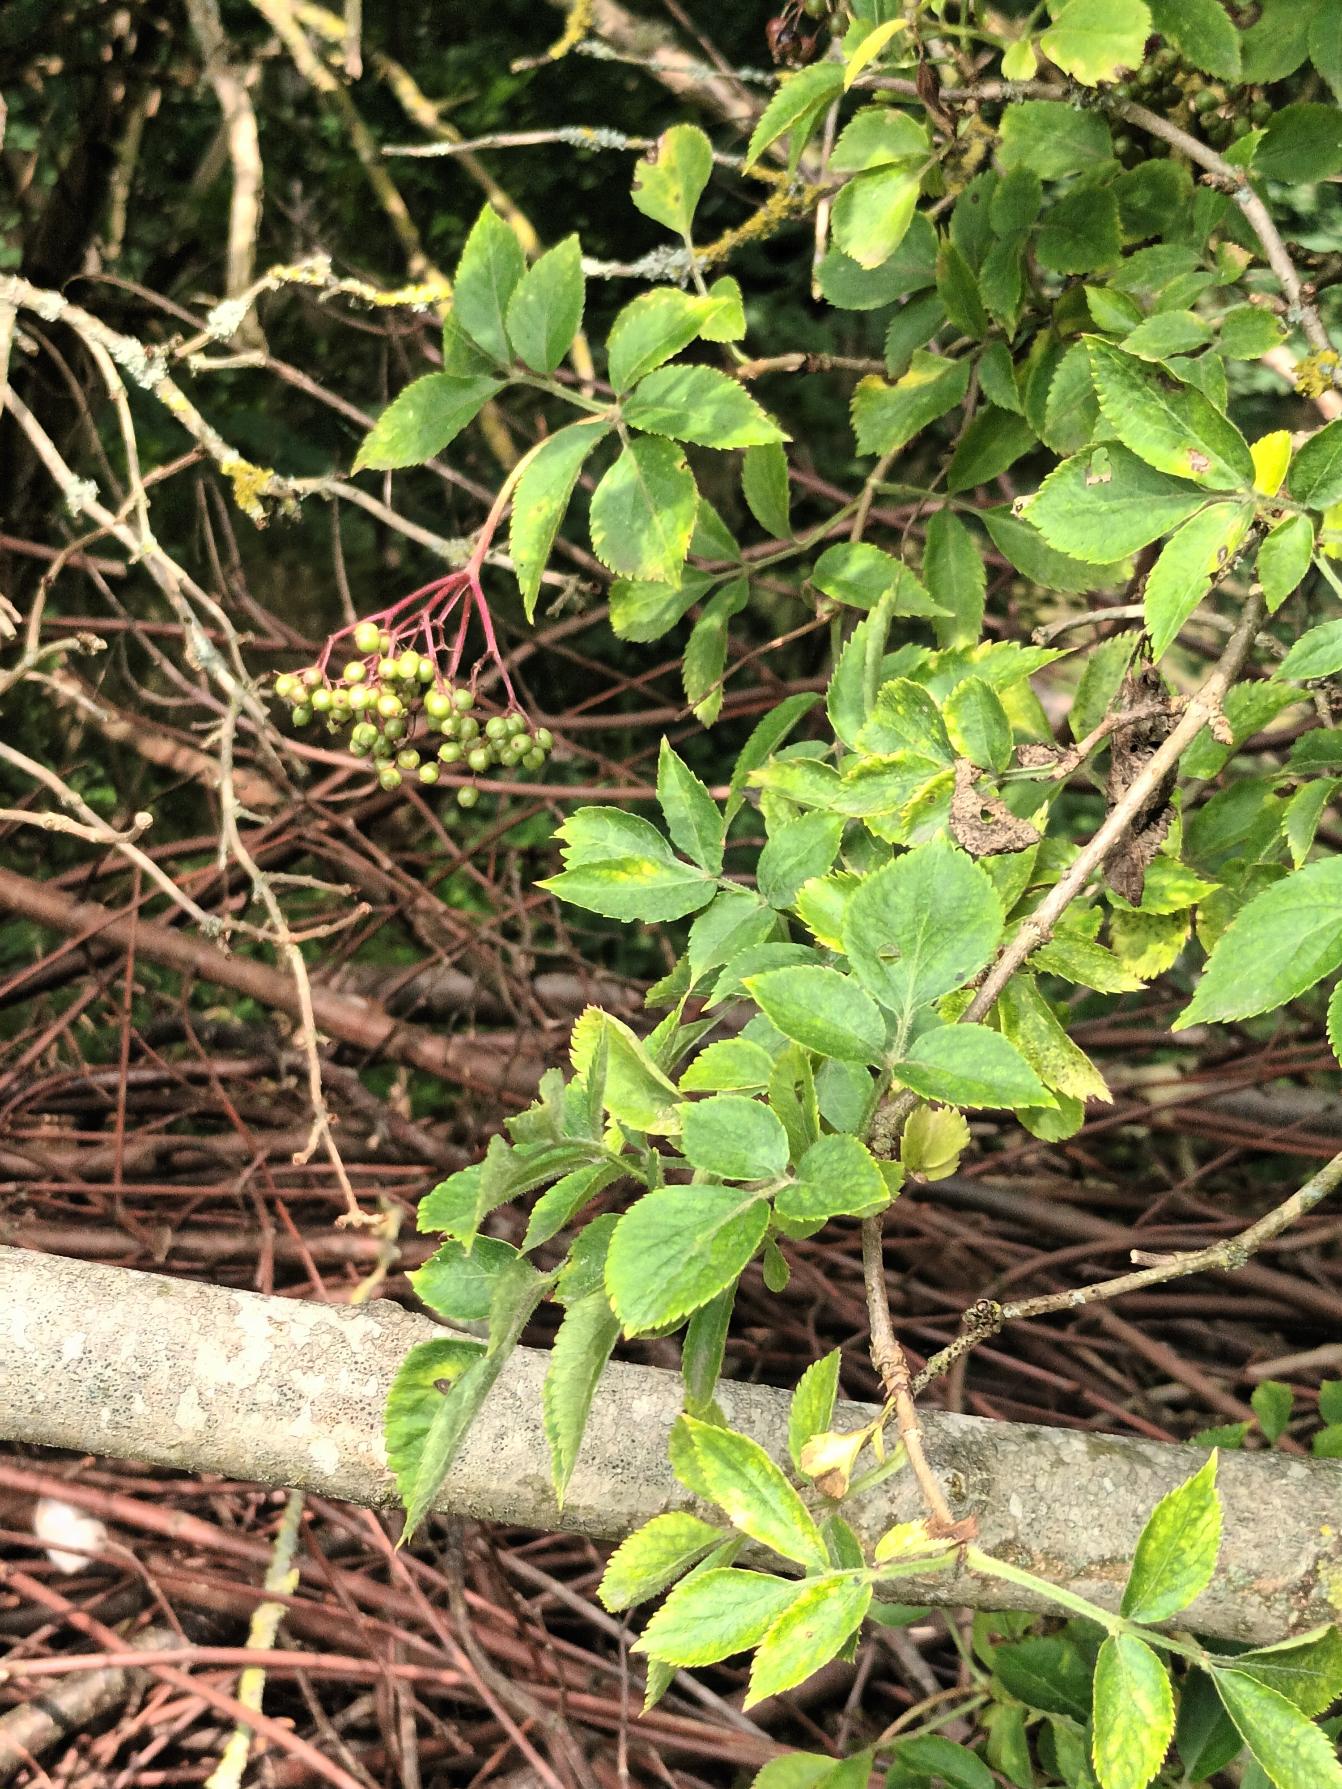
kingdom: Plantae
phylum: Tracheophyta
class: Magnoliopsida
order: Dipsacales
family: Viburnaceae
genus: Sambucus
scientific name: Sambucus nigra
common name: Almindelig hyld
